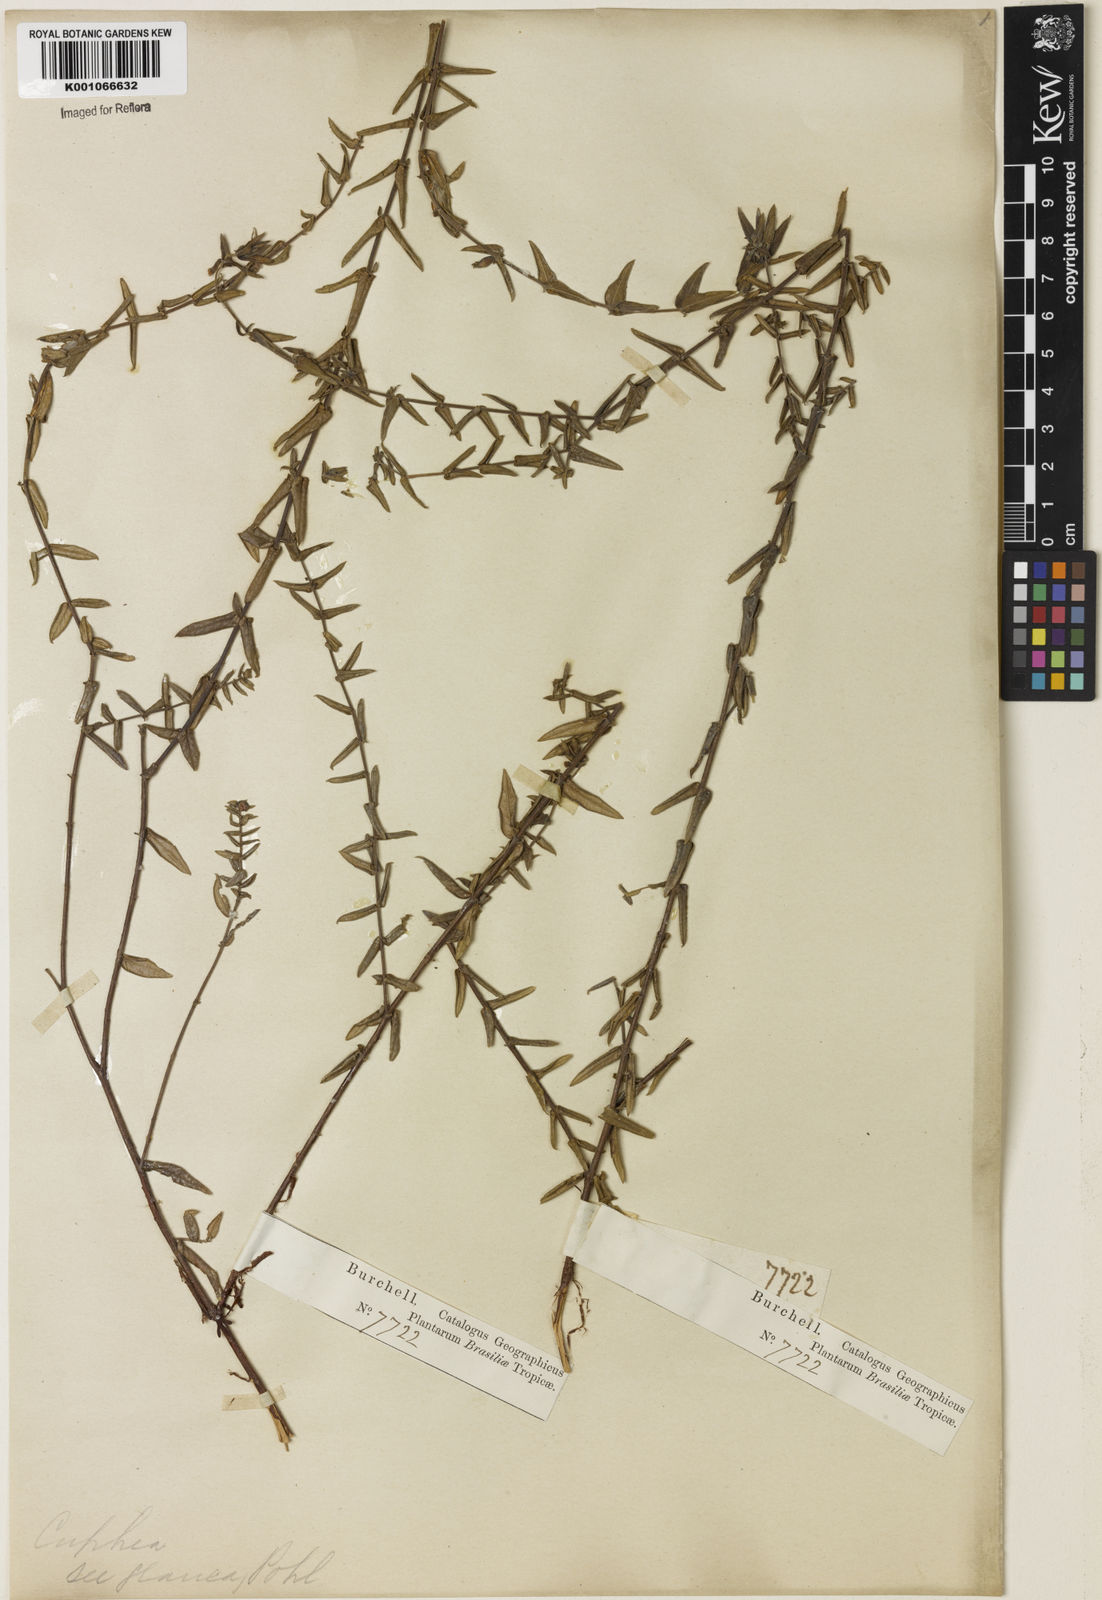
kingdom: Plantae
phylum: Tracheophyta
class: Magnoliopsida
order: Myrtales
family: Lythraceae
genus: Cuphea
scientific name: Cuphea glauca
